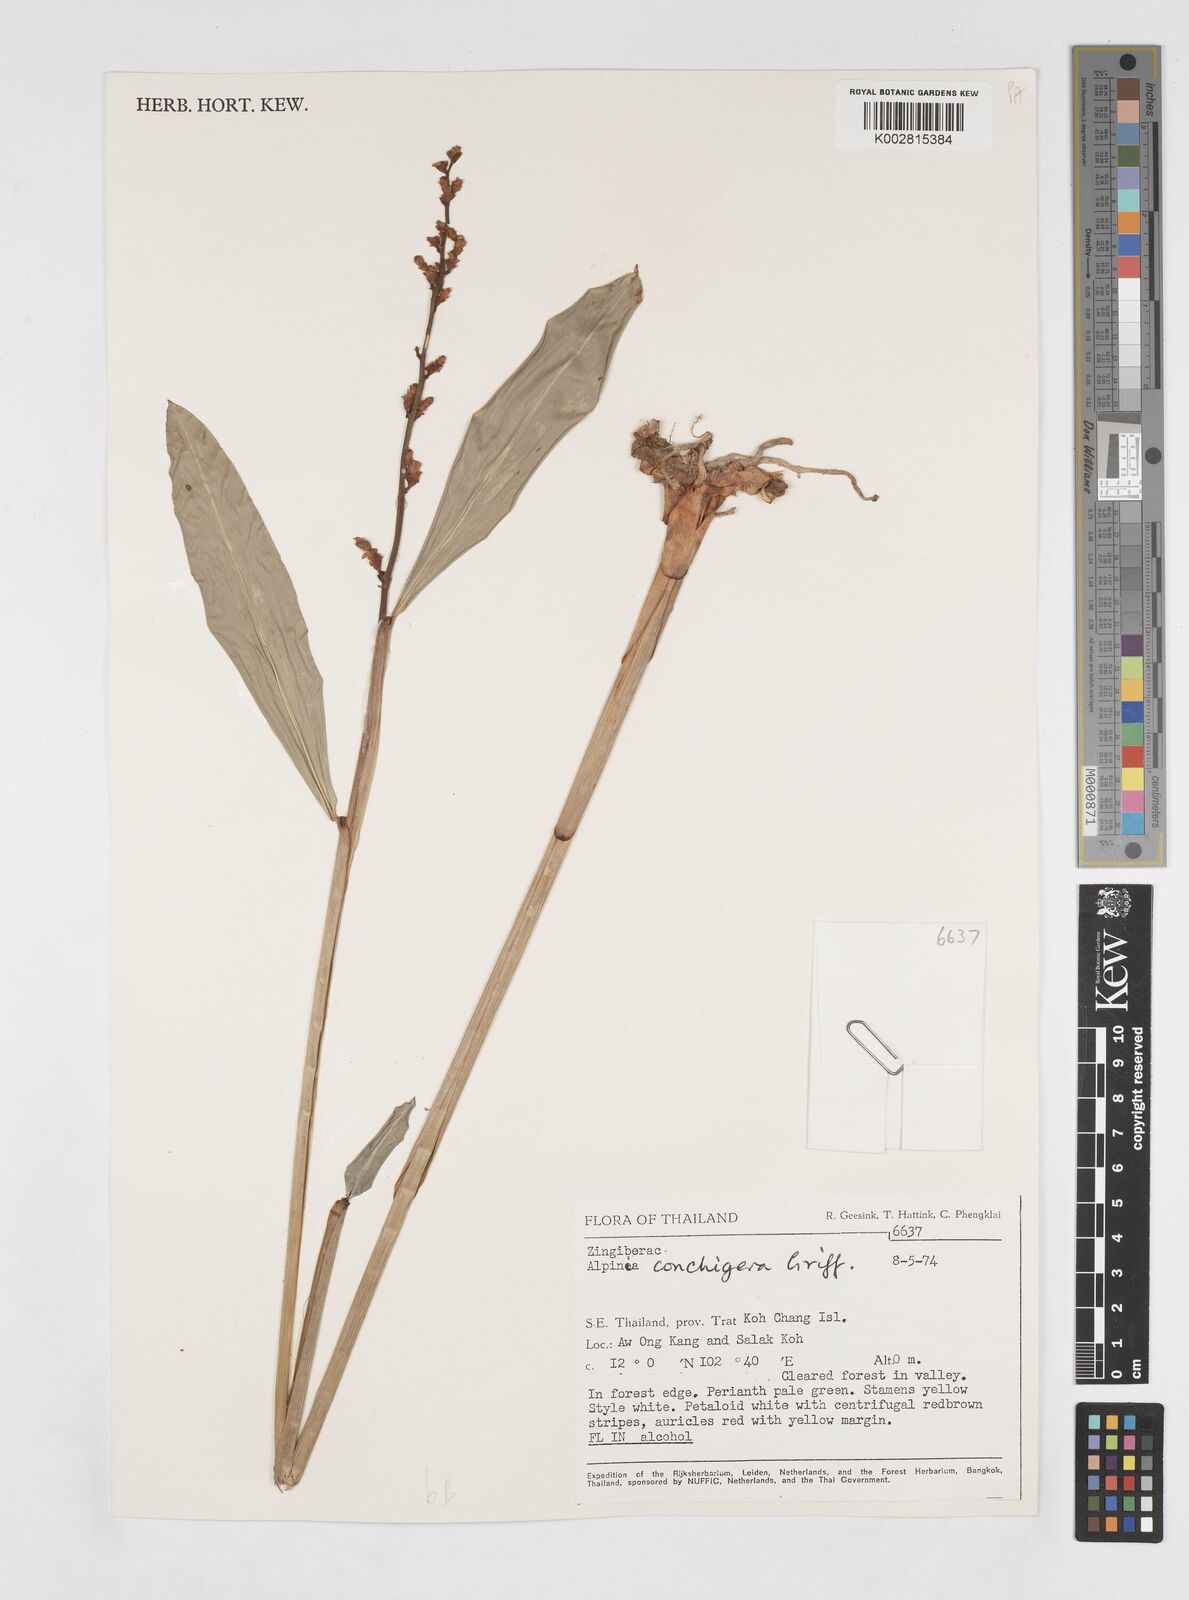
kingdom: Plantae
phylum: Tracheophyta
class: Liliopsida
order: Zingiberales
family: Zingiberaceae
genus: Alpinia
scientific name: Alpinia conchigera
